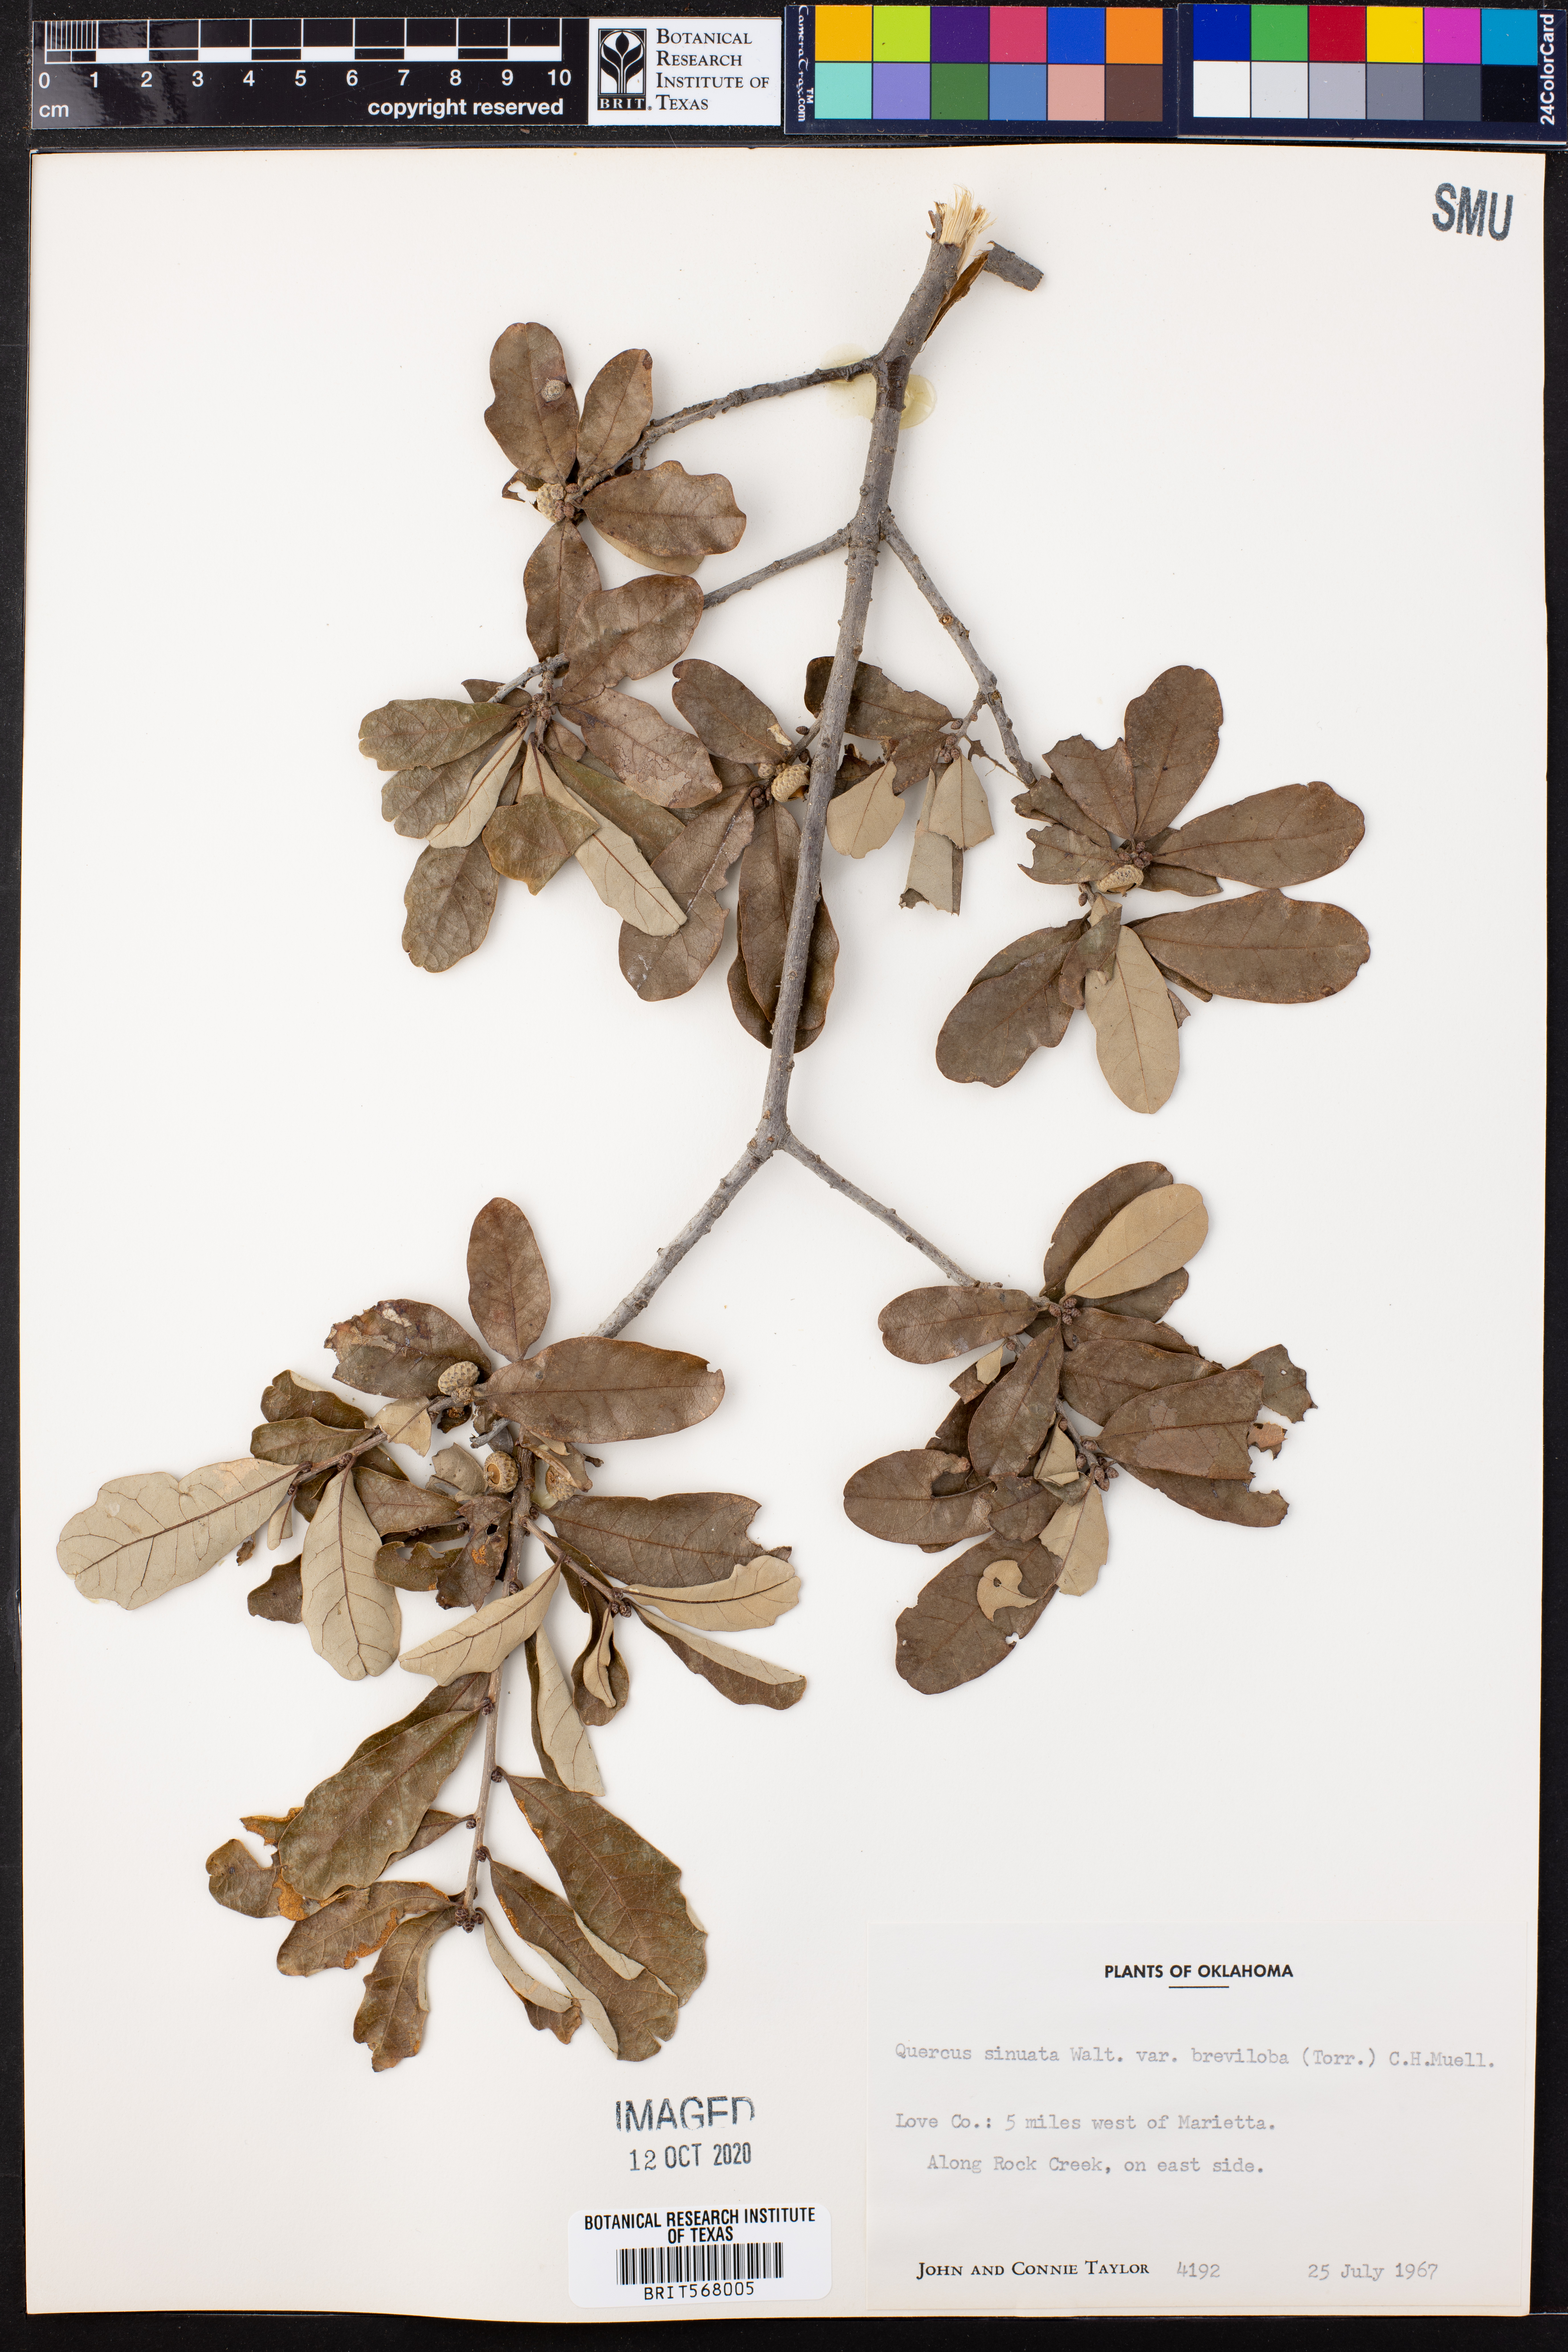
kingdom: Plantae
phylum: Tracheophyta
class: Magnoliopsida
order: Fagales
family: Fagaceae
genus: Quercus
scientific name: Quercus sinuata
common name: Durand oak
